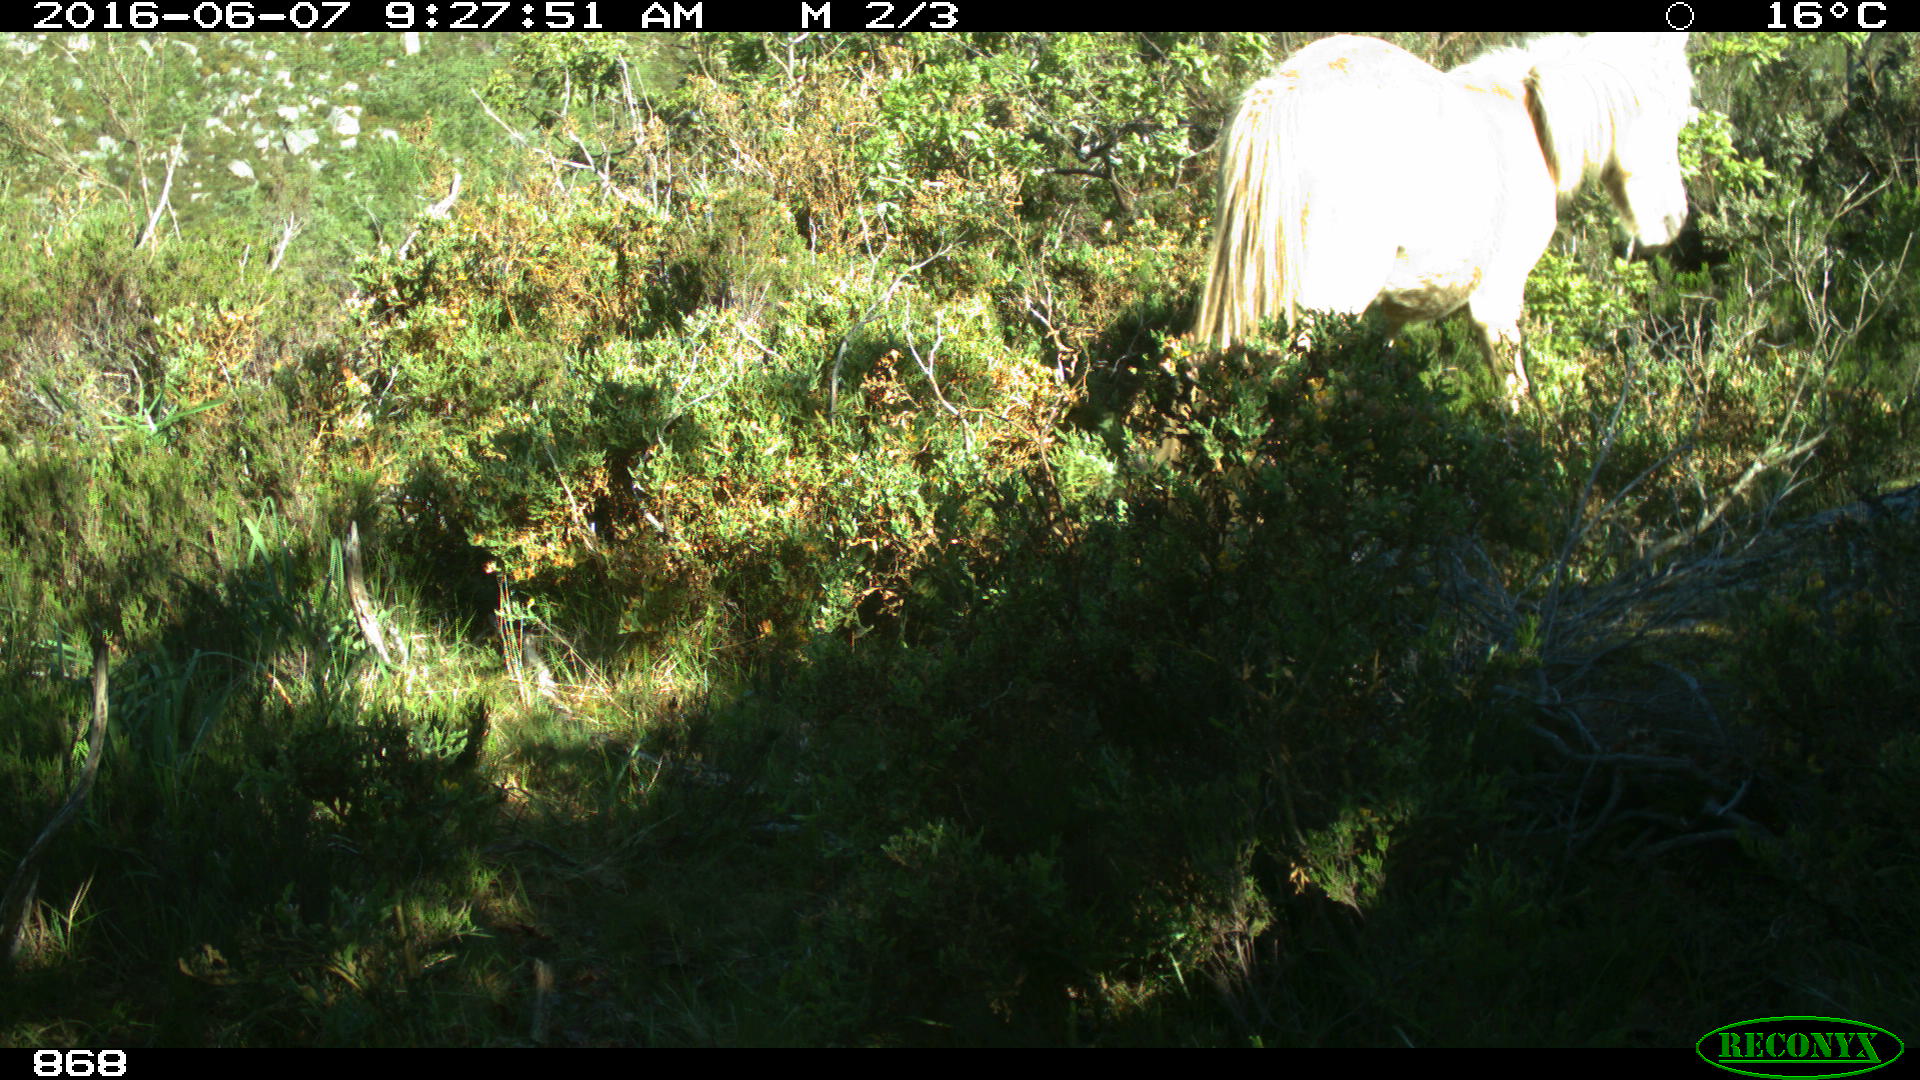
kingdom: Animalia
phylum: Chordata
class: Mammalia
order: Perissodactyla
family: Equidae
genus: Equus
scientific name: Equus caballus
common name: Horse
